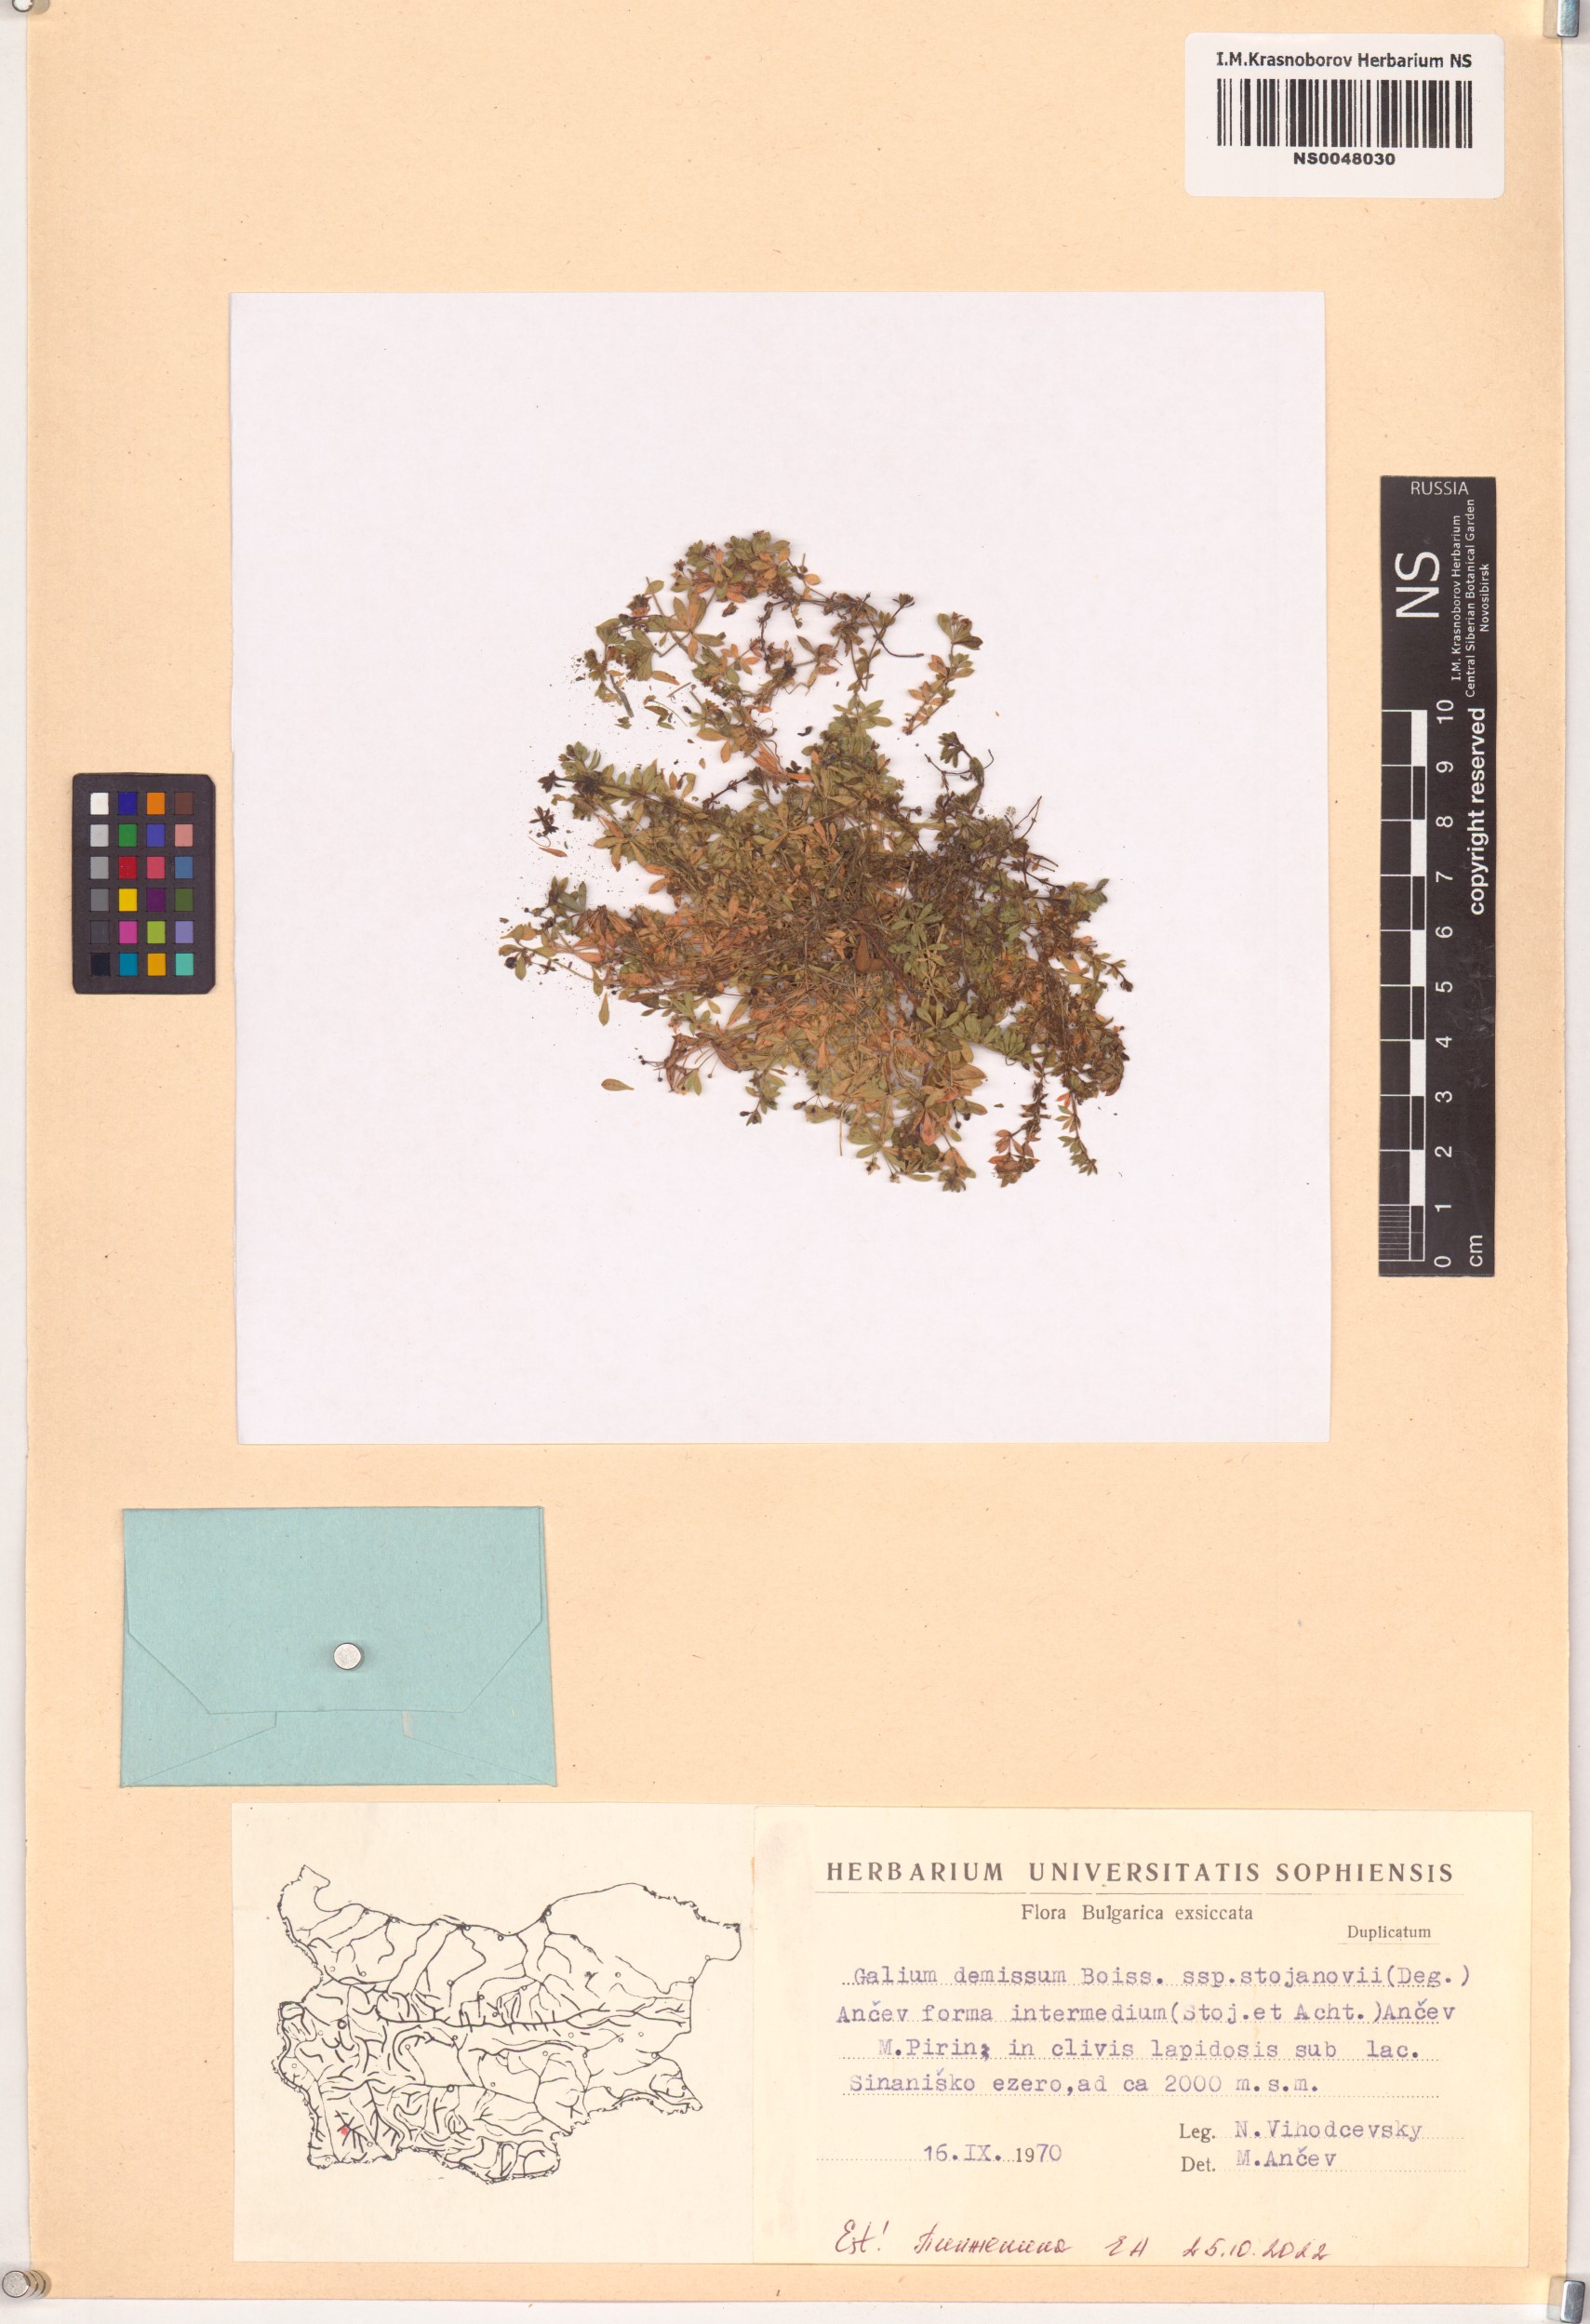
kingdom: Plantae
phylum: Tracheophyta
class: Magnoliopsida
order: Gentianales
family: Rubiaceae
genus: Galium
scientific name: Galium demissum
